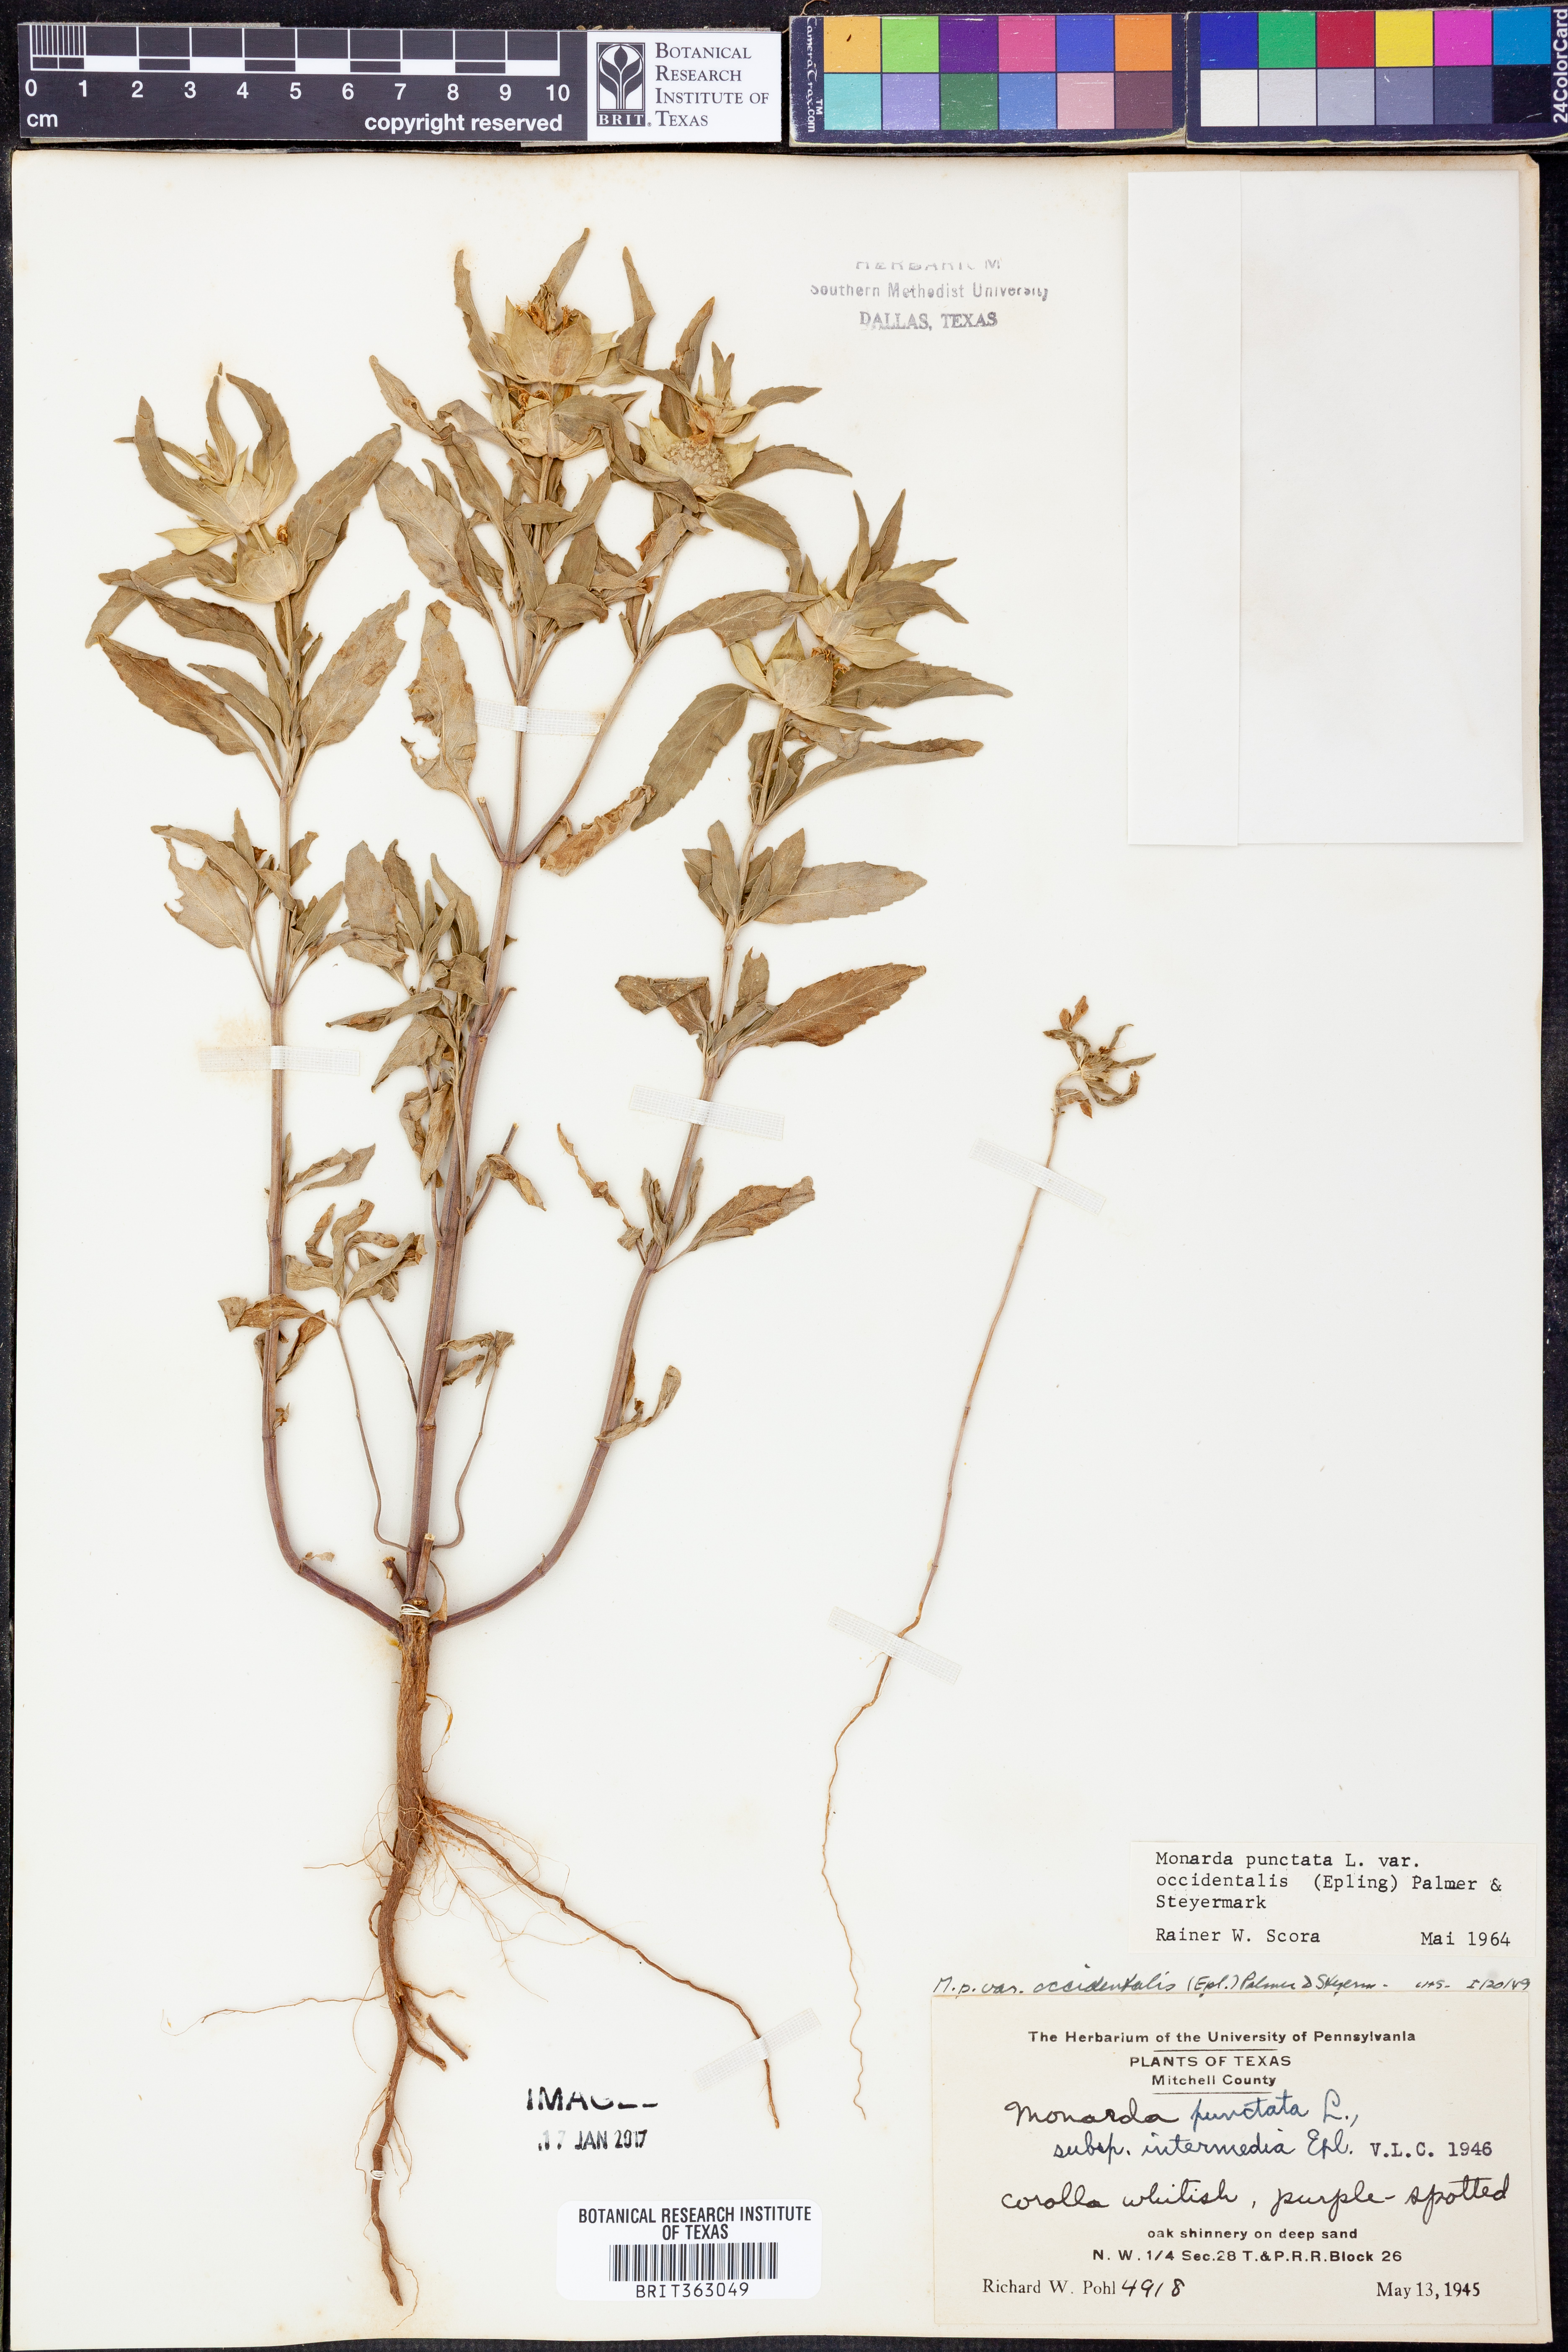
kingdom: Plantae
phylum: Tracheophyta
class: Magnoliopsida
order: Lamiales
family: Lamiaceae
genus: Monarda
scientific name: Monarda punctata
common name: Dotted monarda
